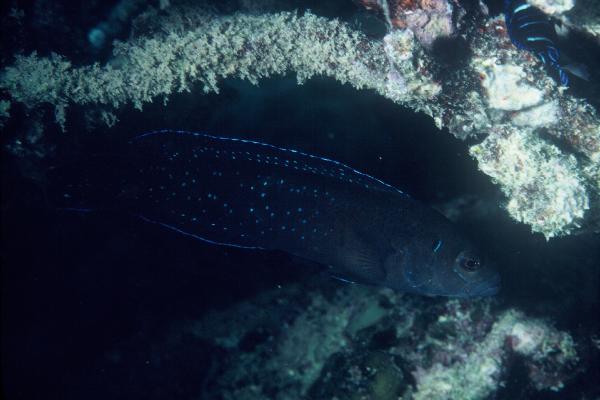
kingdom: Animalia
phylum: Chordata
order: Perciformes
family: Pseudochromidae
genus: Pseudochromis
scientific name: Pseudochromis persicus
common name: Bluespotted dottyback
